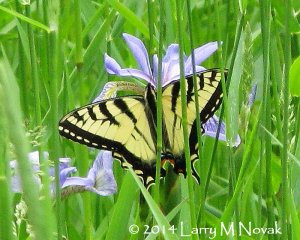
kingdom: Animalia
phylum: Arthropoda
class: Insecta
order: Lepidoptera
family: Papilionidae
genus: Pterourus
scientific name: Pterourus canadensis
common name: Canadian Tiger Swallowtail
